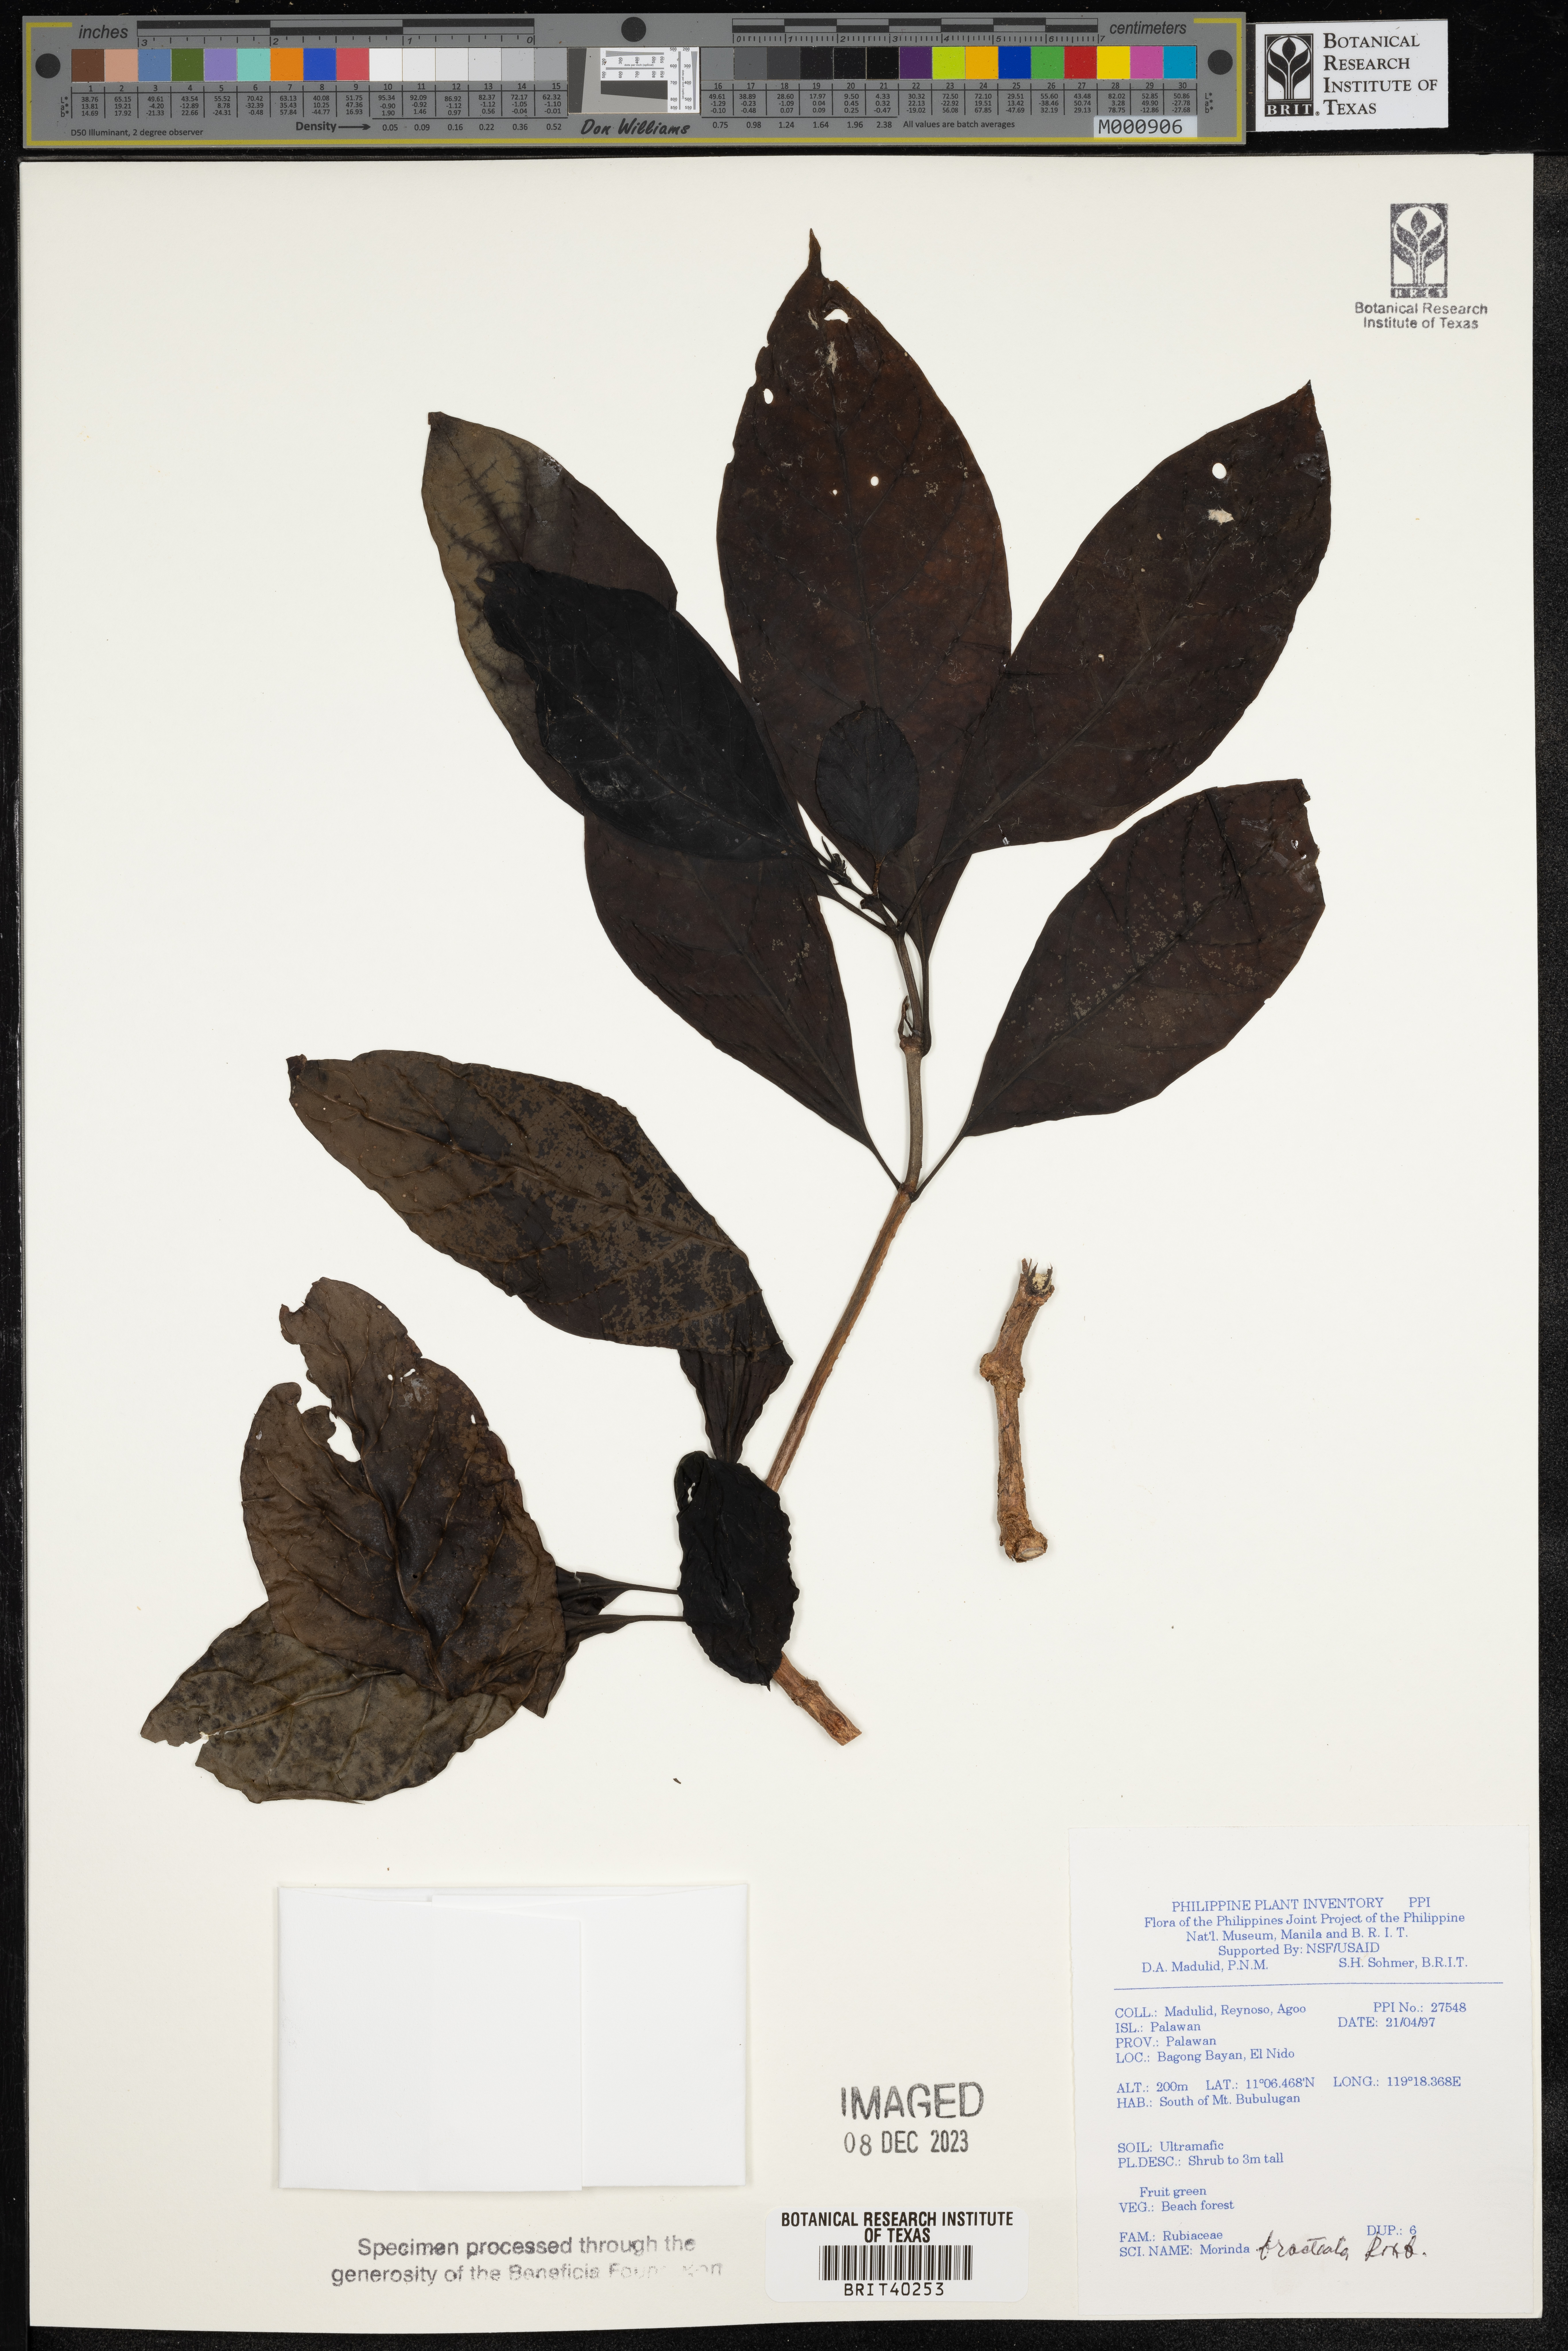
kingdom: Plantae
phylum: Tracheophyta
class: Magnoliopsida
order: Gentianales
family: Rubiaceae
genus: Morinda
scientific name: Morinda bracteata
